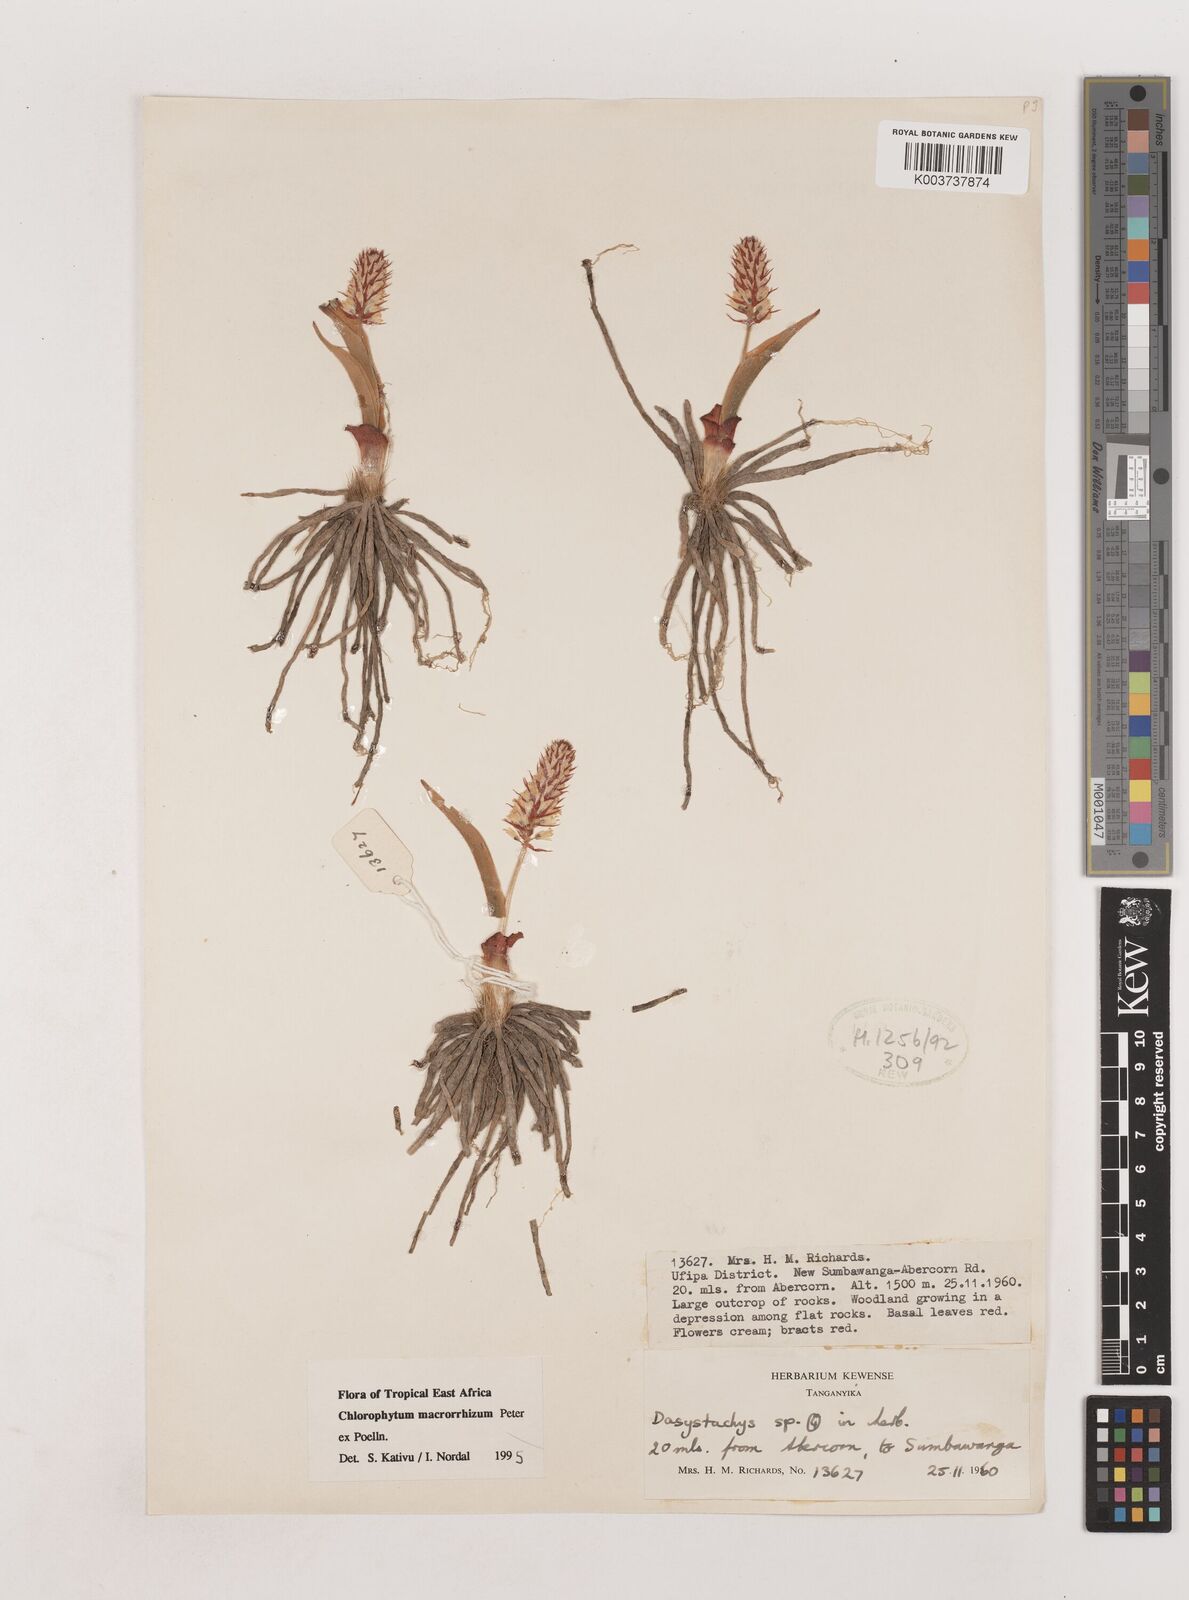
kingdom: Plantae
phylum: Tracheophyta
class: Liliopsida
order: Asparagales
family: Asparagaceae
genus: Chlorophytum
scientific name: Chlorophytum macrorrhizum
